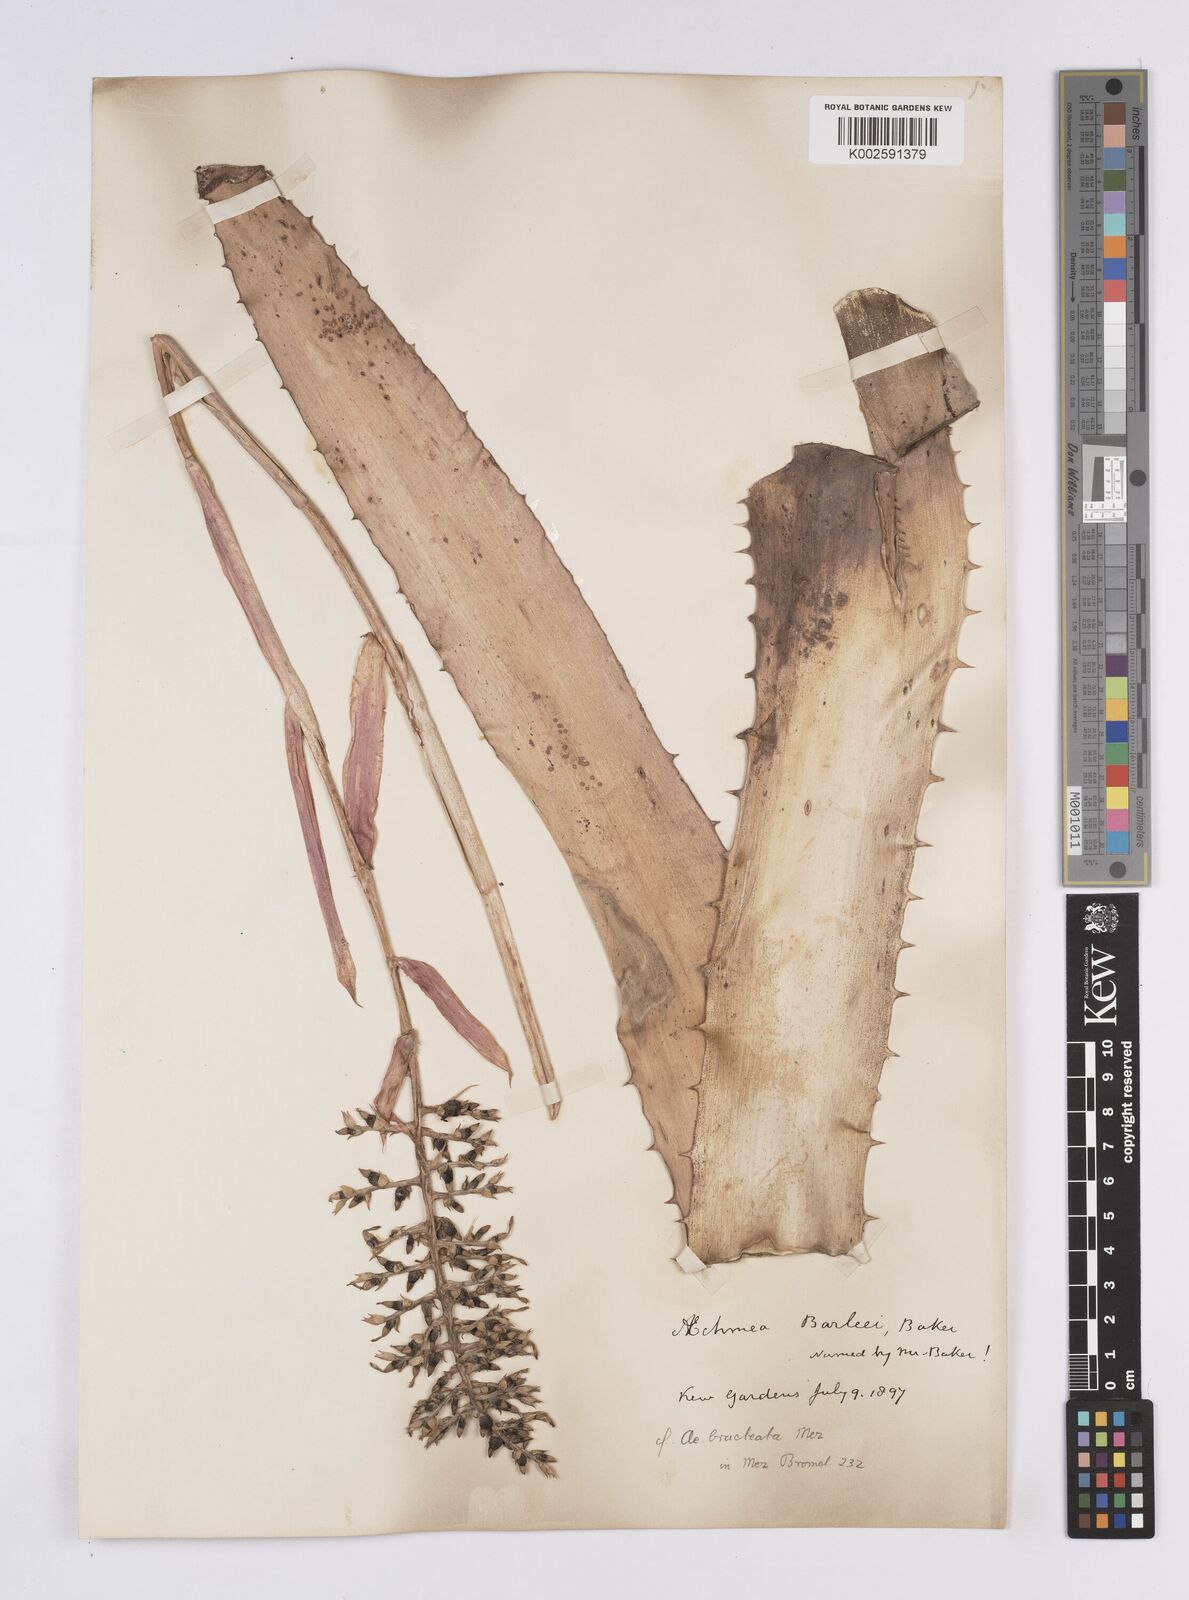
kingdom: Plantae
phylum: Tracheophyta
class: Liliopsida
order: Poales
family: Bromeliaceae
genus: Aechmea
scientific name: Aechmea bracteata
